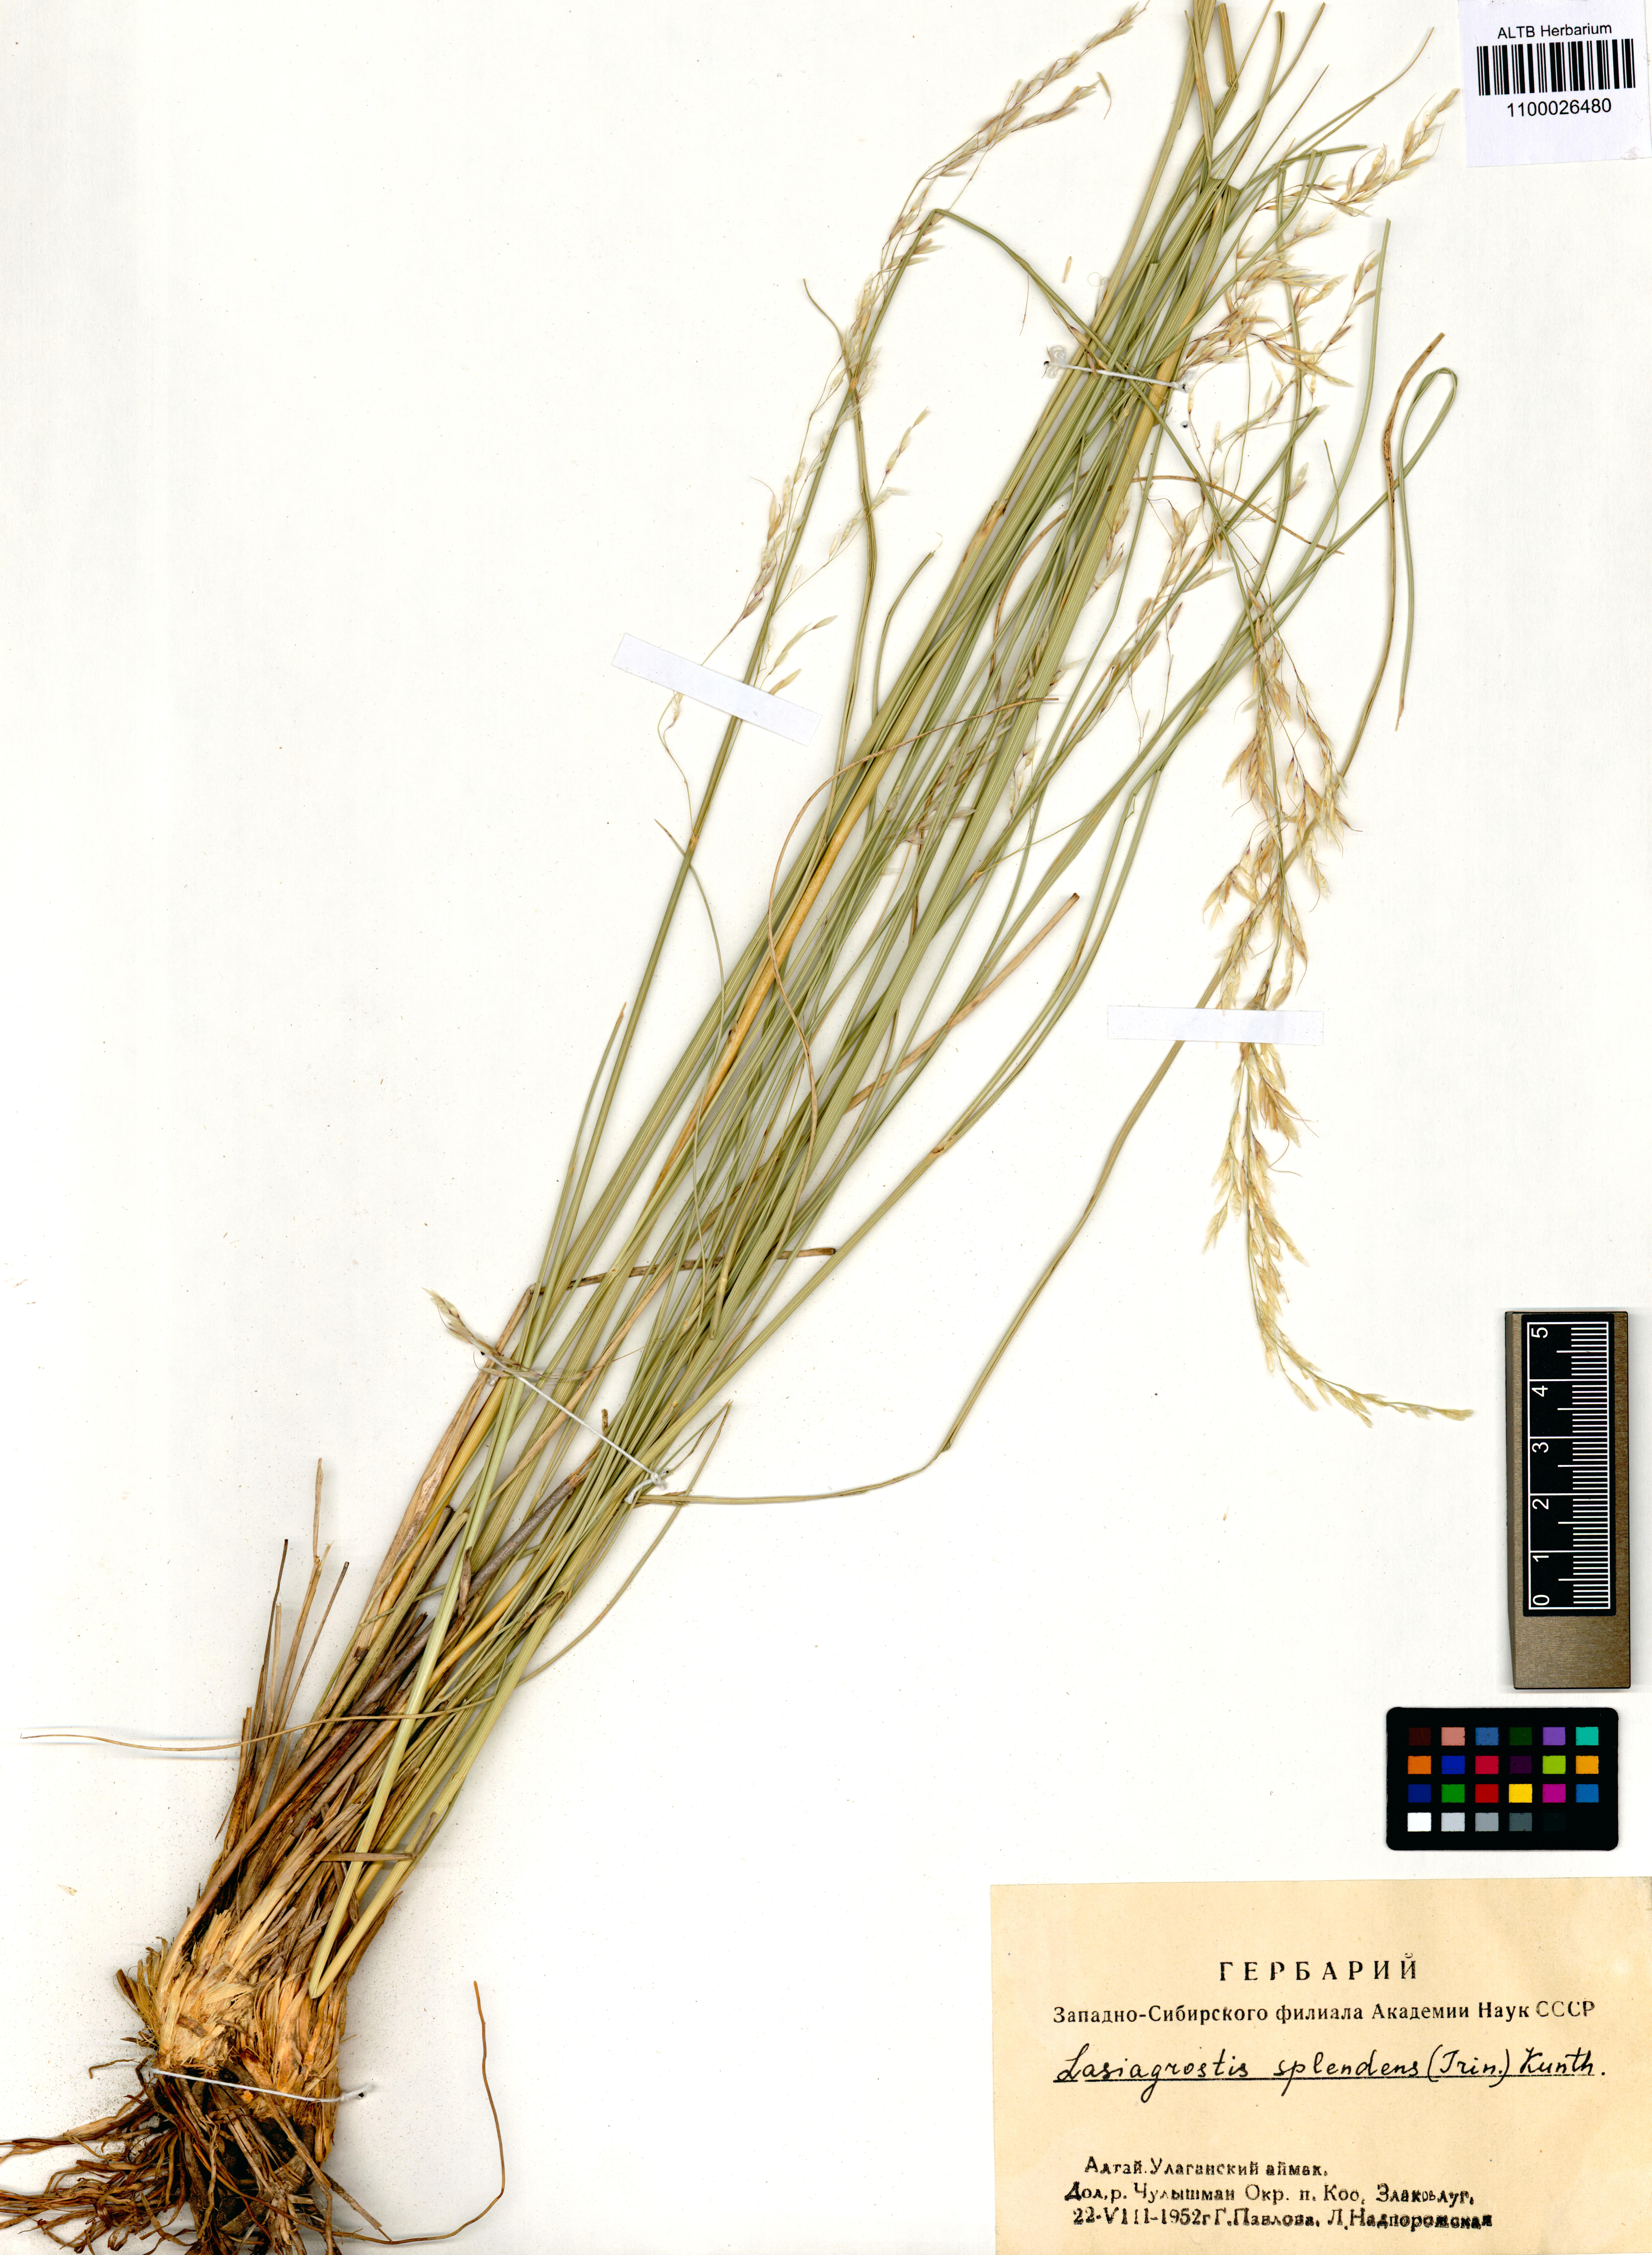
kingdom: Plantae
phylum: Tracheophyta
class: Liliopsida
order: Poales
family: Poaceae
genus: Neotrinia
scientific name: Neotrinia splendens
